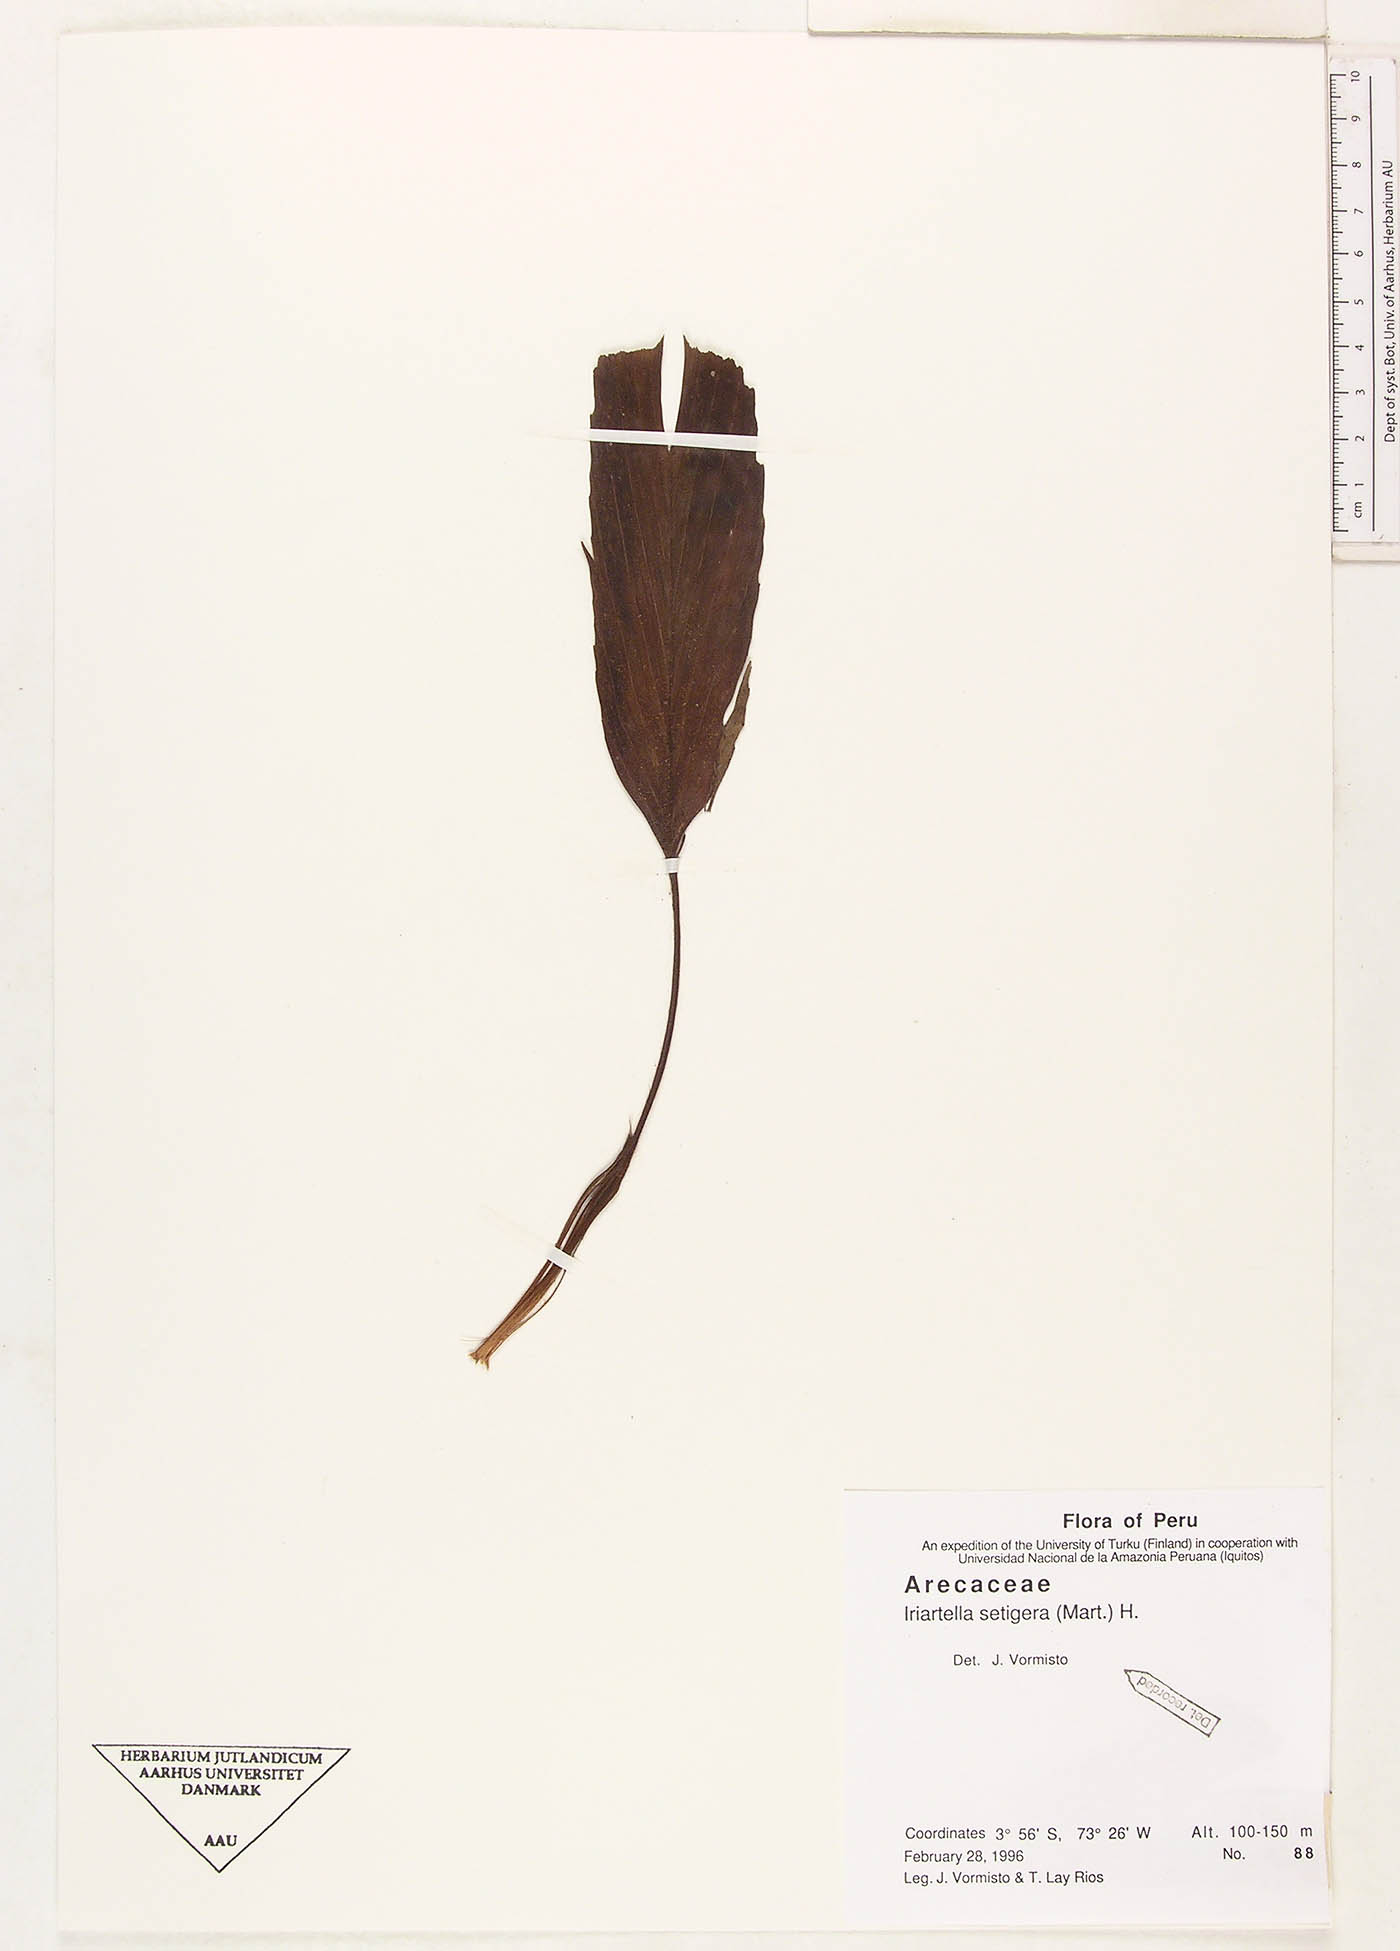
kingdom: Plantae
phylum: Tracheophyta
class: Liliopsida
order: Arecales
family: Arecaceae
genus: Iriartella
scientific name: Iriartella setigera
